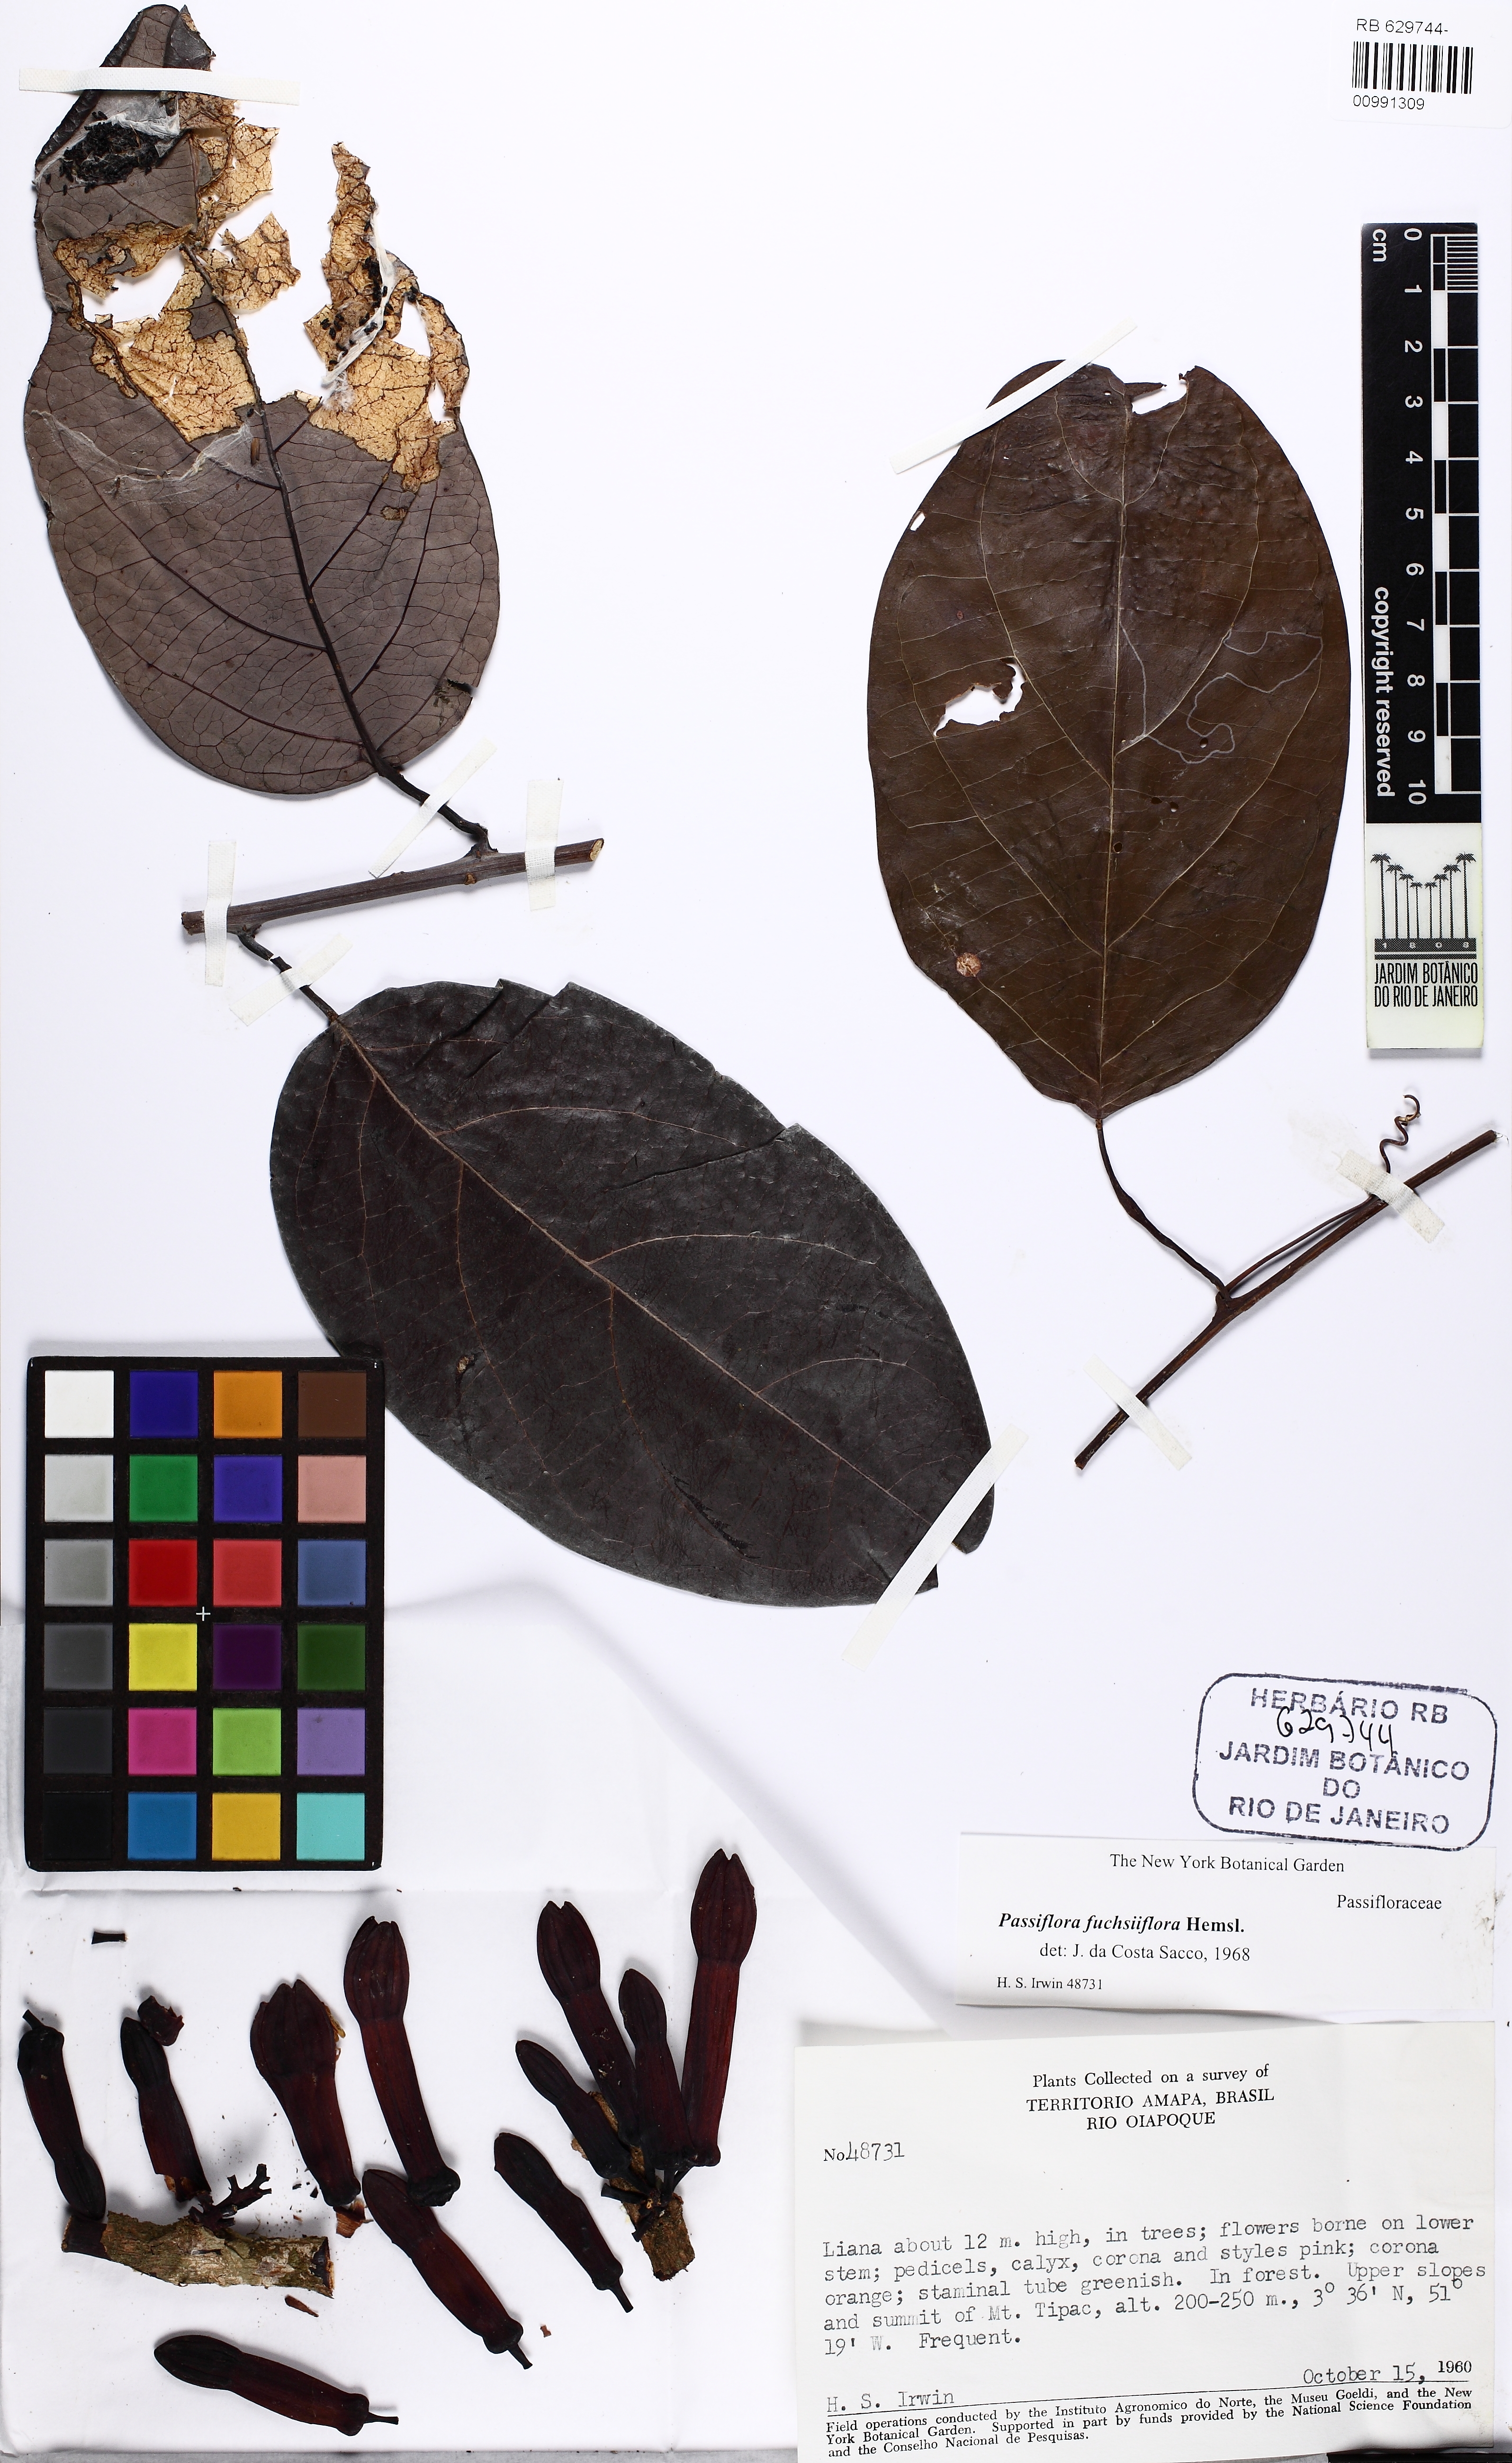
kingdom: Plantae
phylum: Tracheophyta
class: Magnoliopsida
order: Malpighiales
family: Passifloraceae
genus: Passiflora
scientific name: Passiflora fuchsiiflora
